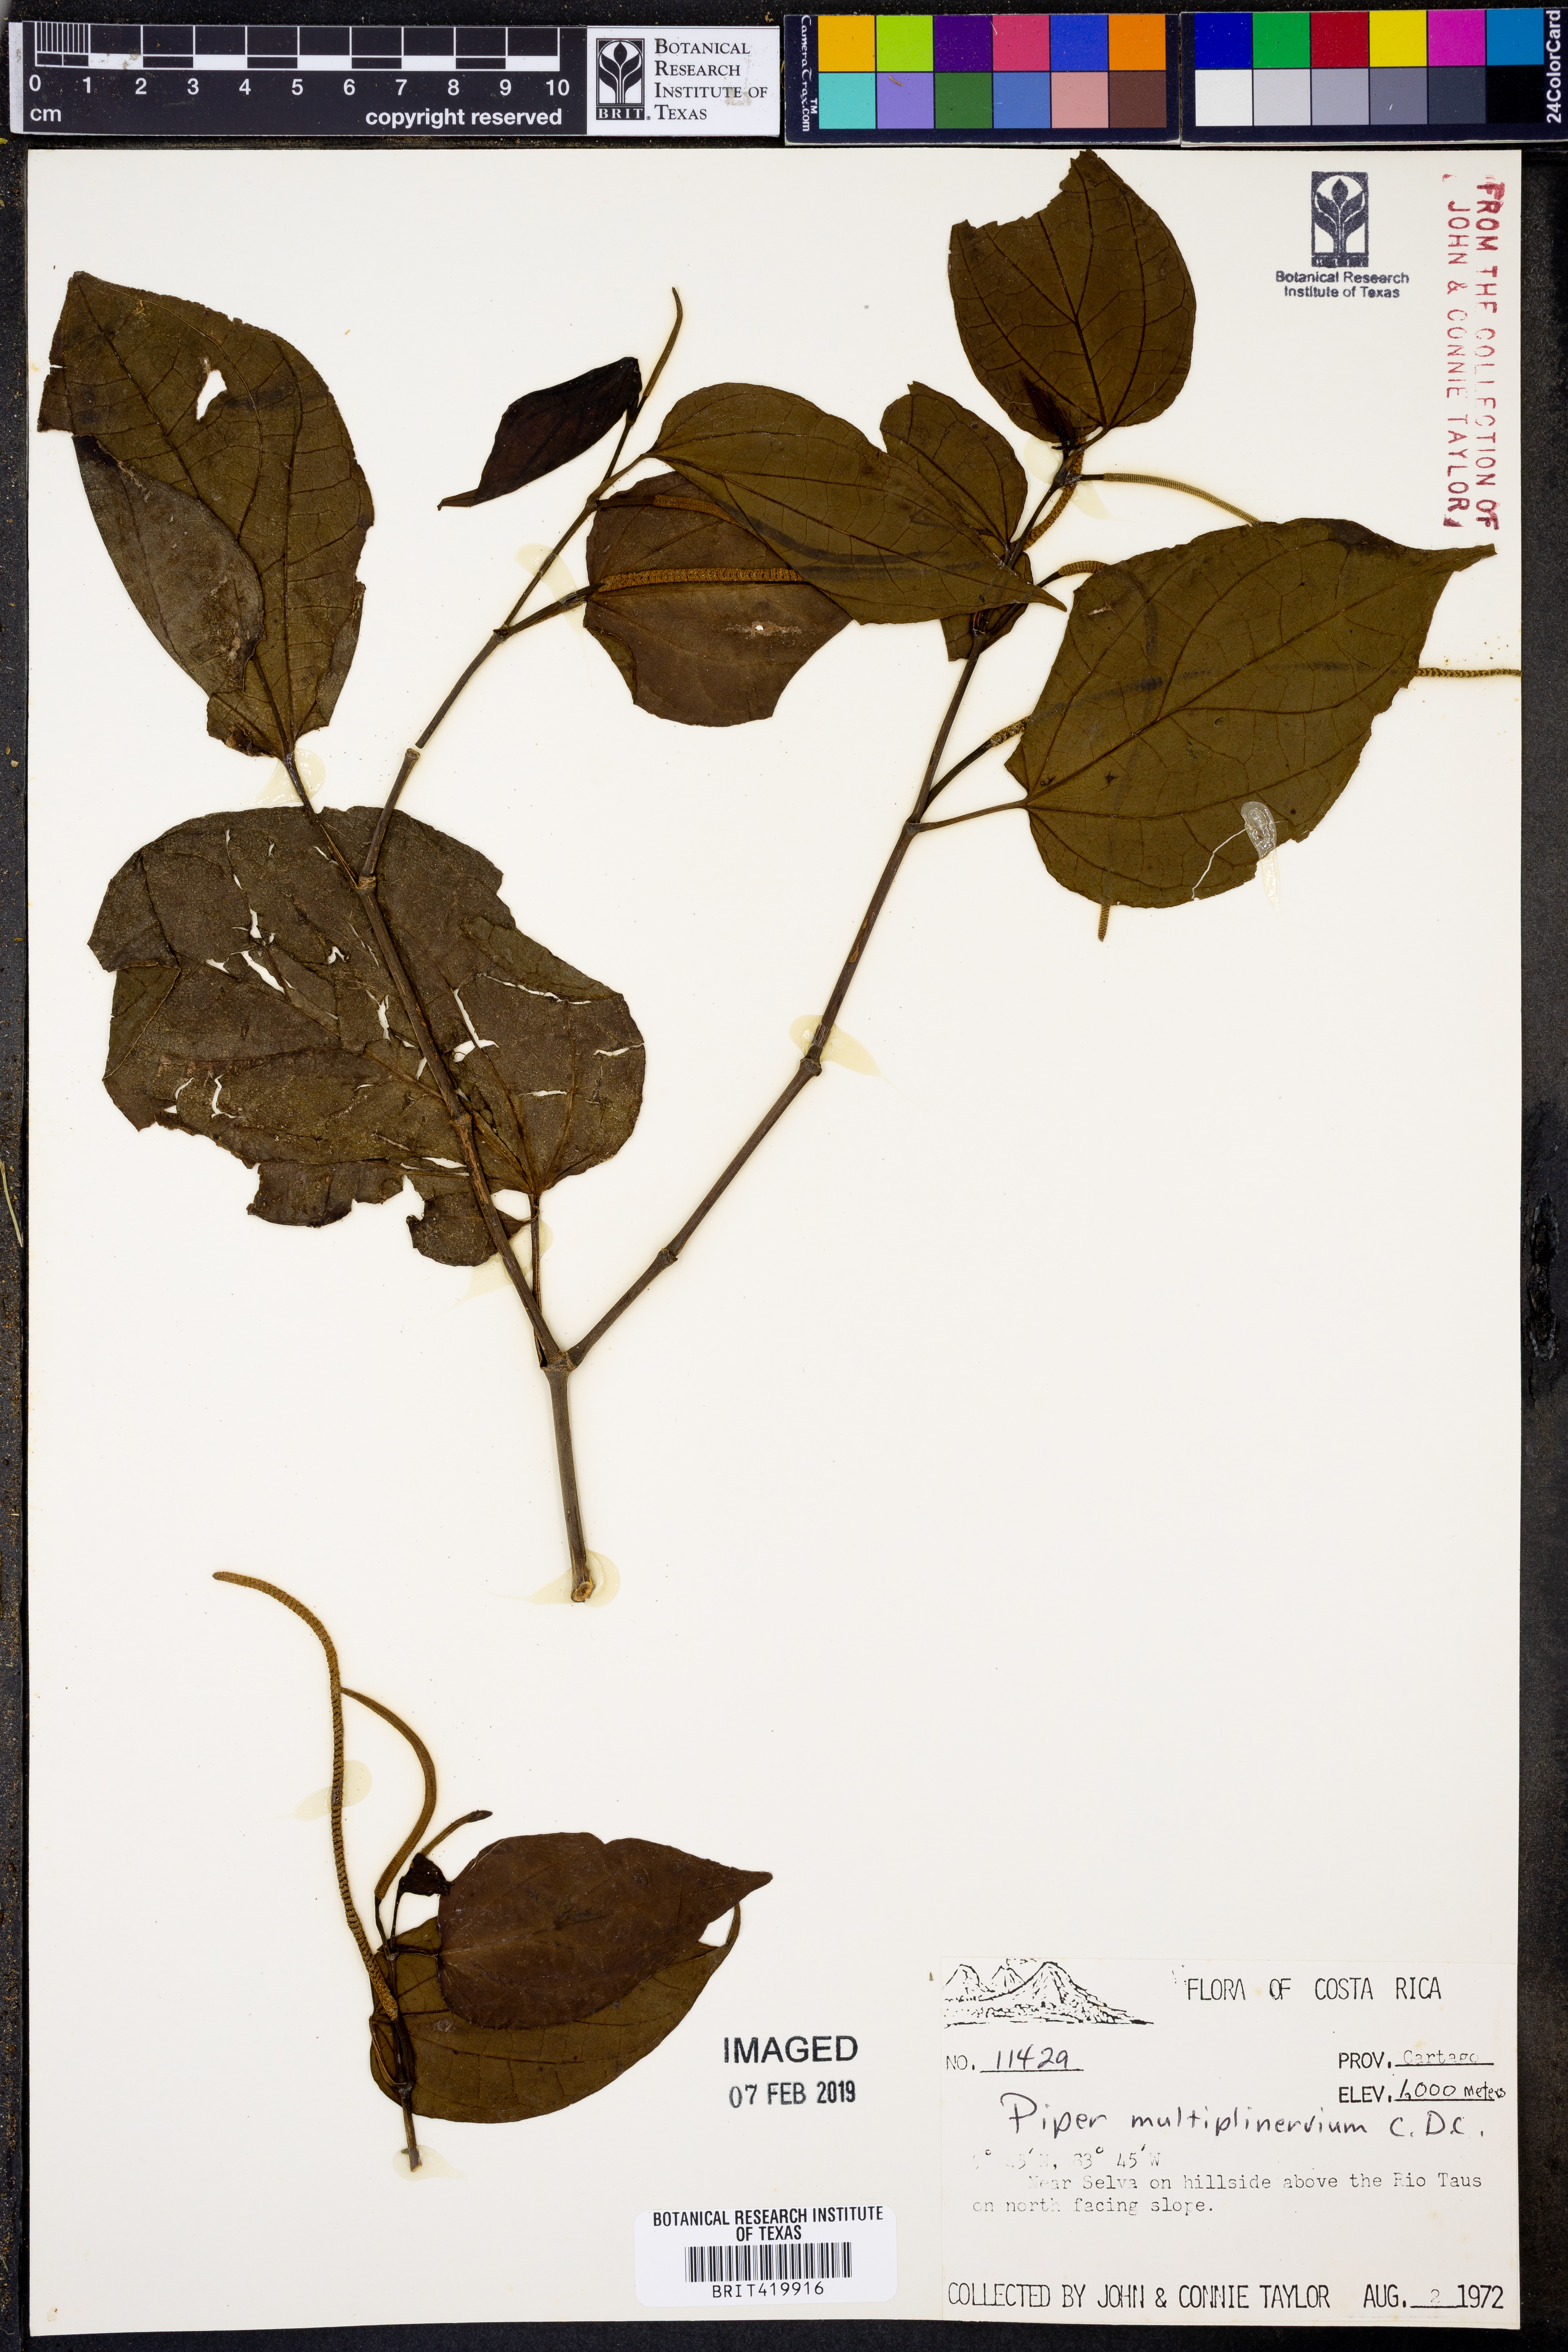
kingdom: Plantae
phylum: Tracheophyta
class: Magnoliopsida
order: Piperales
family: Piperaceae
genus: Piper
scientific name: Piper multiplinervium
